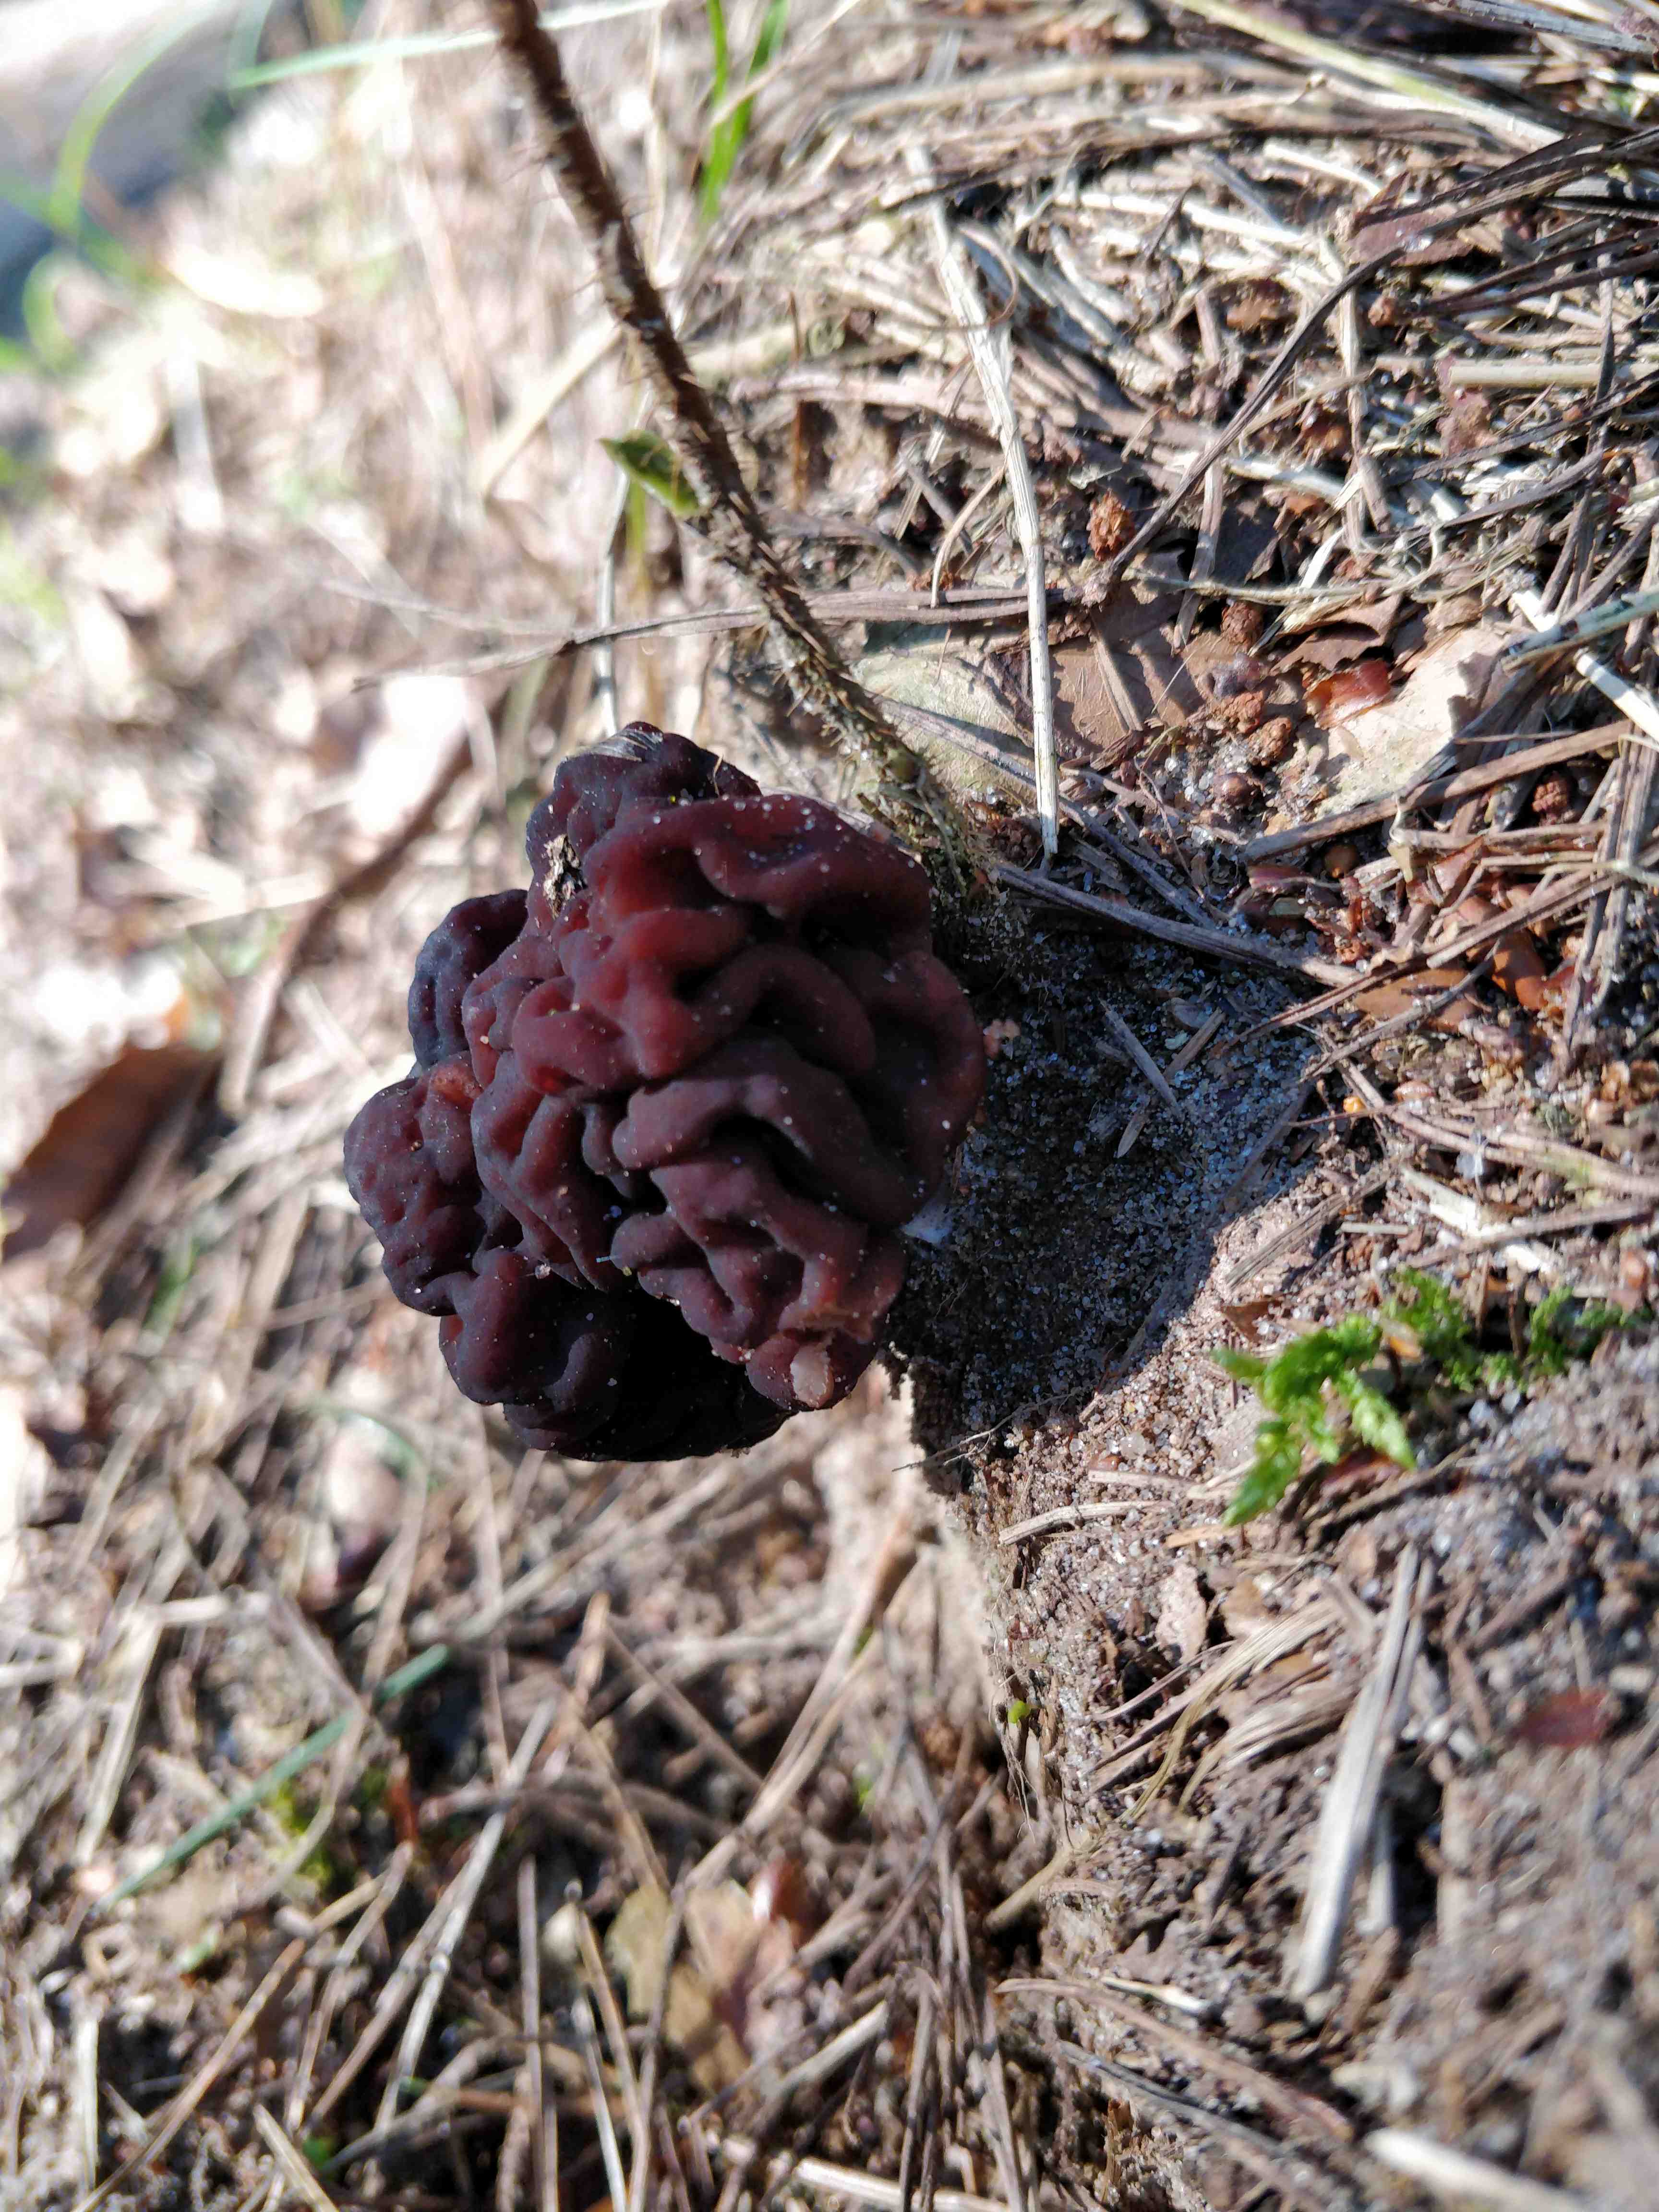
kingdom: Fungi
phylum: Ascomycota
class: Pezizomycetes
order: Pezizales
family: Discinaceae
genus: Gyromitra
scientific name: Gyromitra esculenta
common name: ægte stenmorkel
